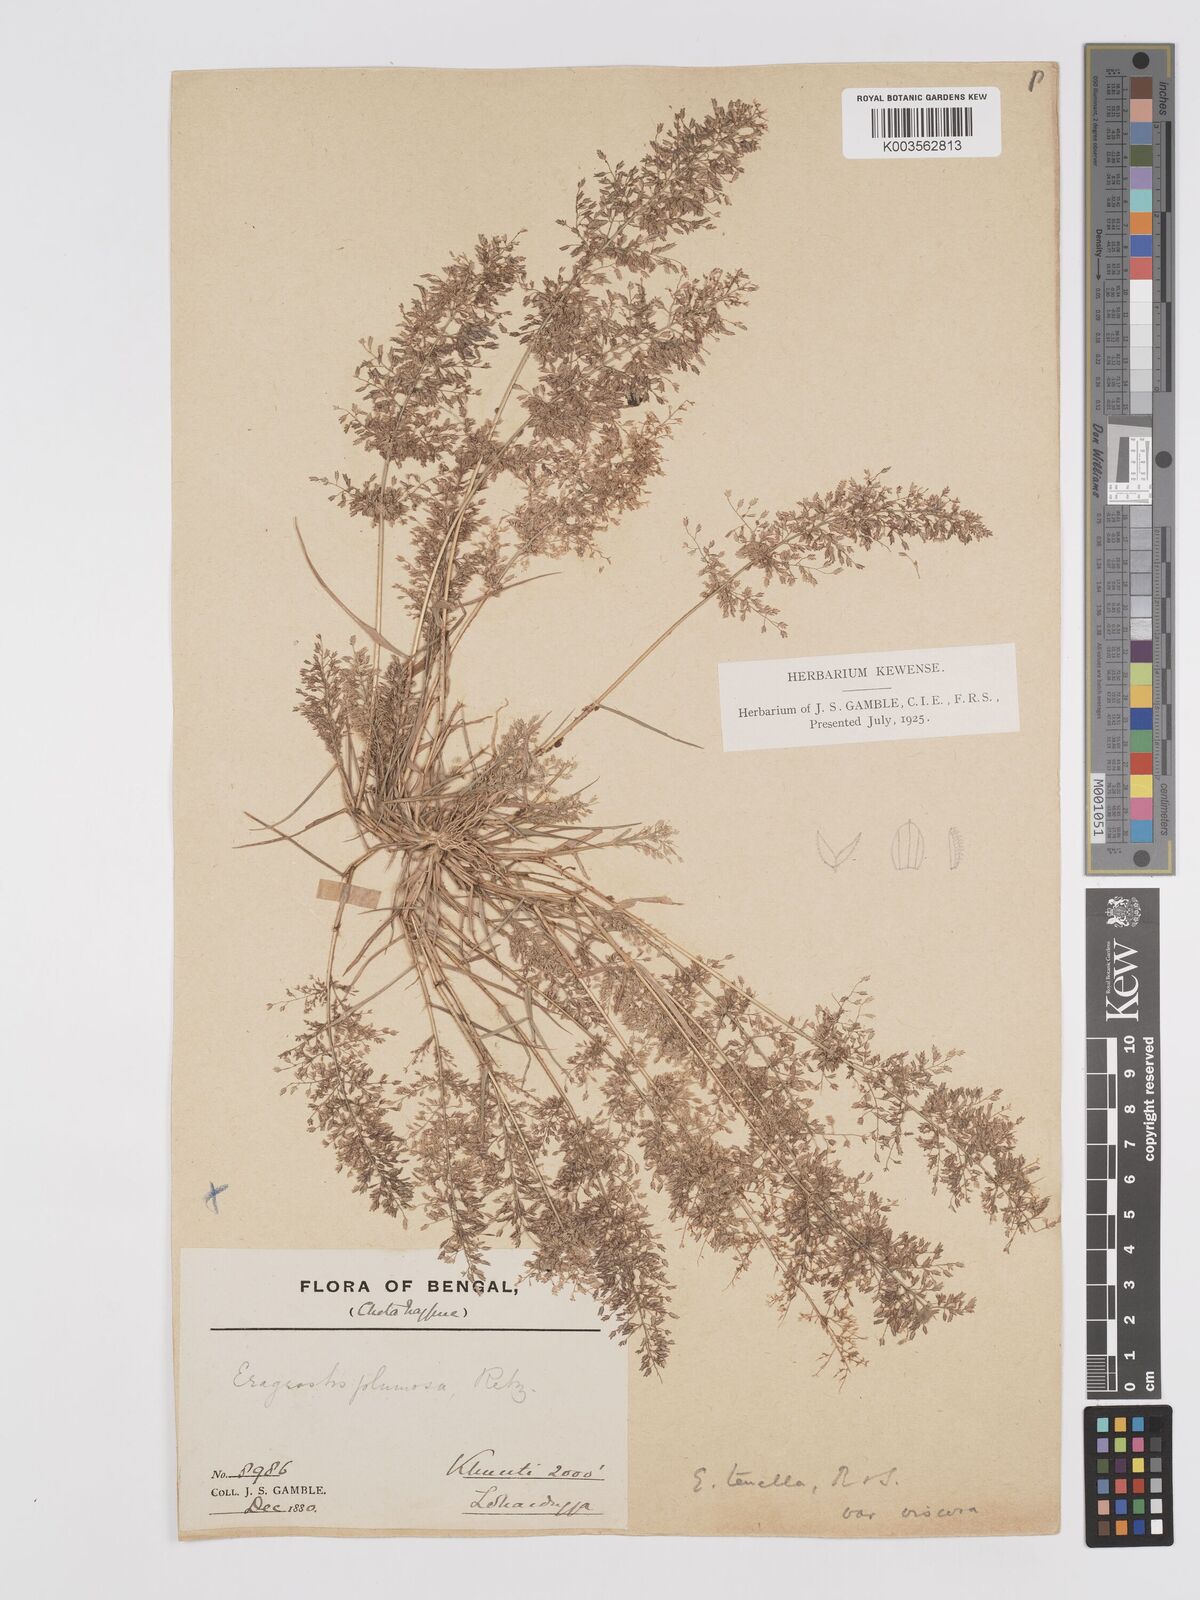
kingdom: Plantae
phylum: Tracheophyta
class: Liliopsida
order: Poales
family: Poaceae
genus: Eragrostis
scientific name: Eragrostis viscosa
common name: Sticky love grass
